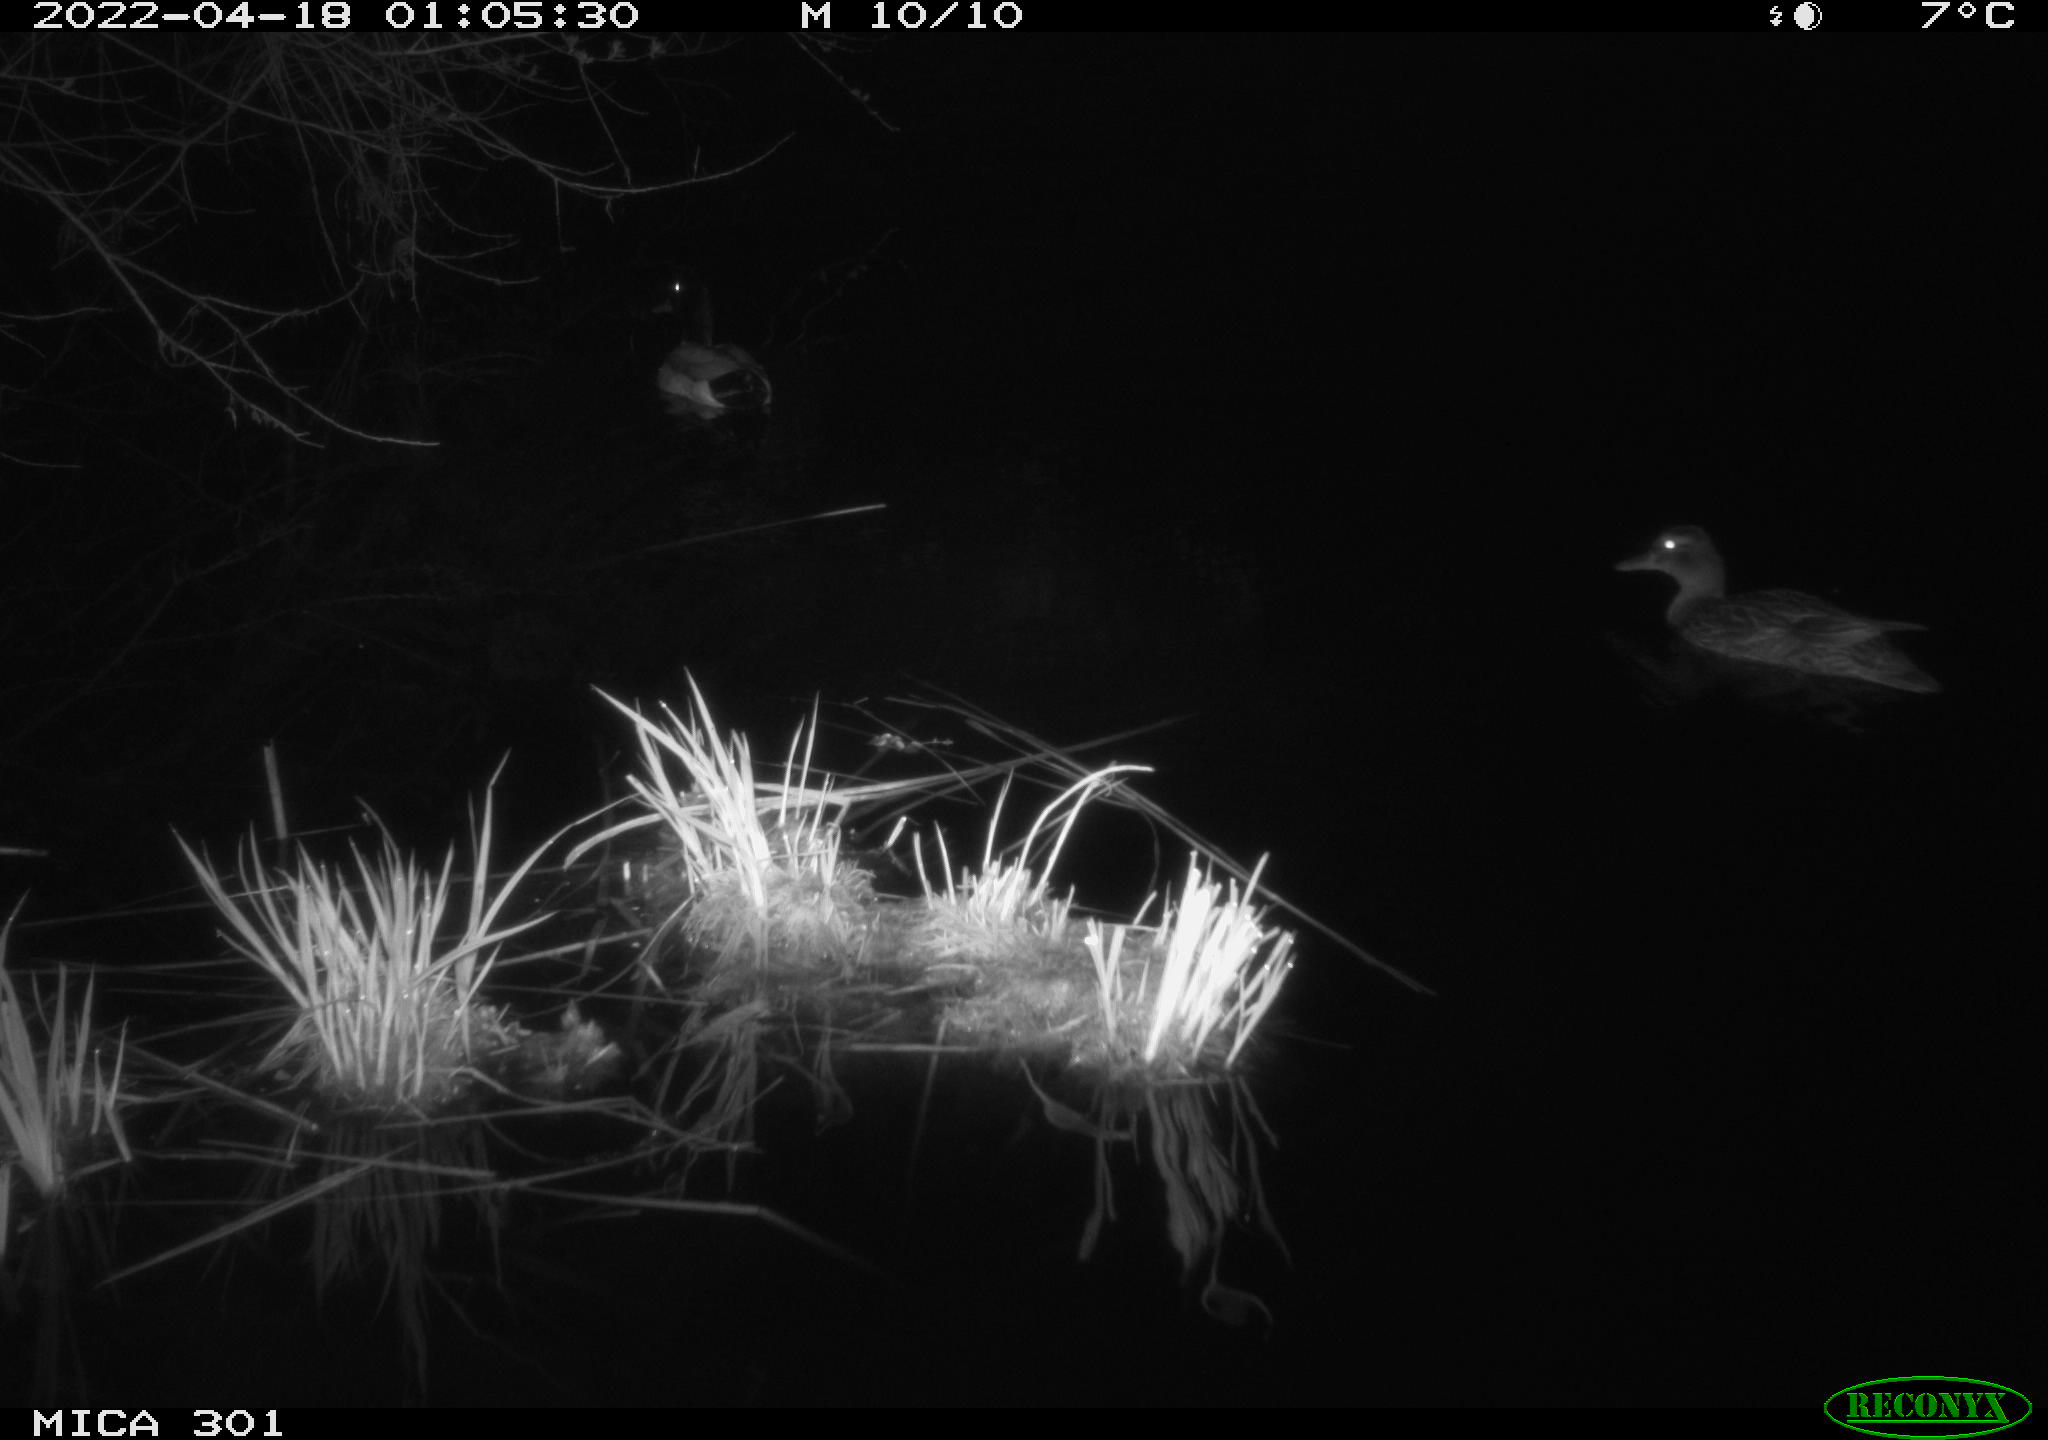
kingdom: Animalia
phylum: Chordata
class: Aves
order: Anseriformes
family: Anatidae
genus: Anas
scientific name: Anas platyrhynchos
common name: Mallard
